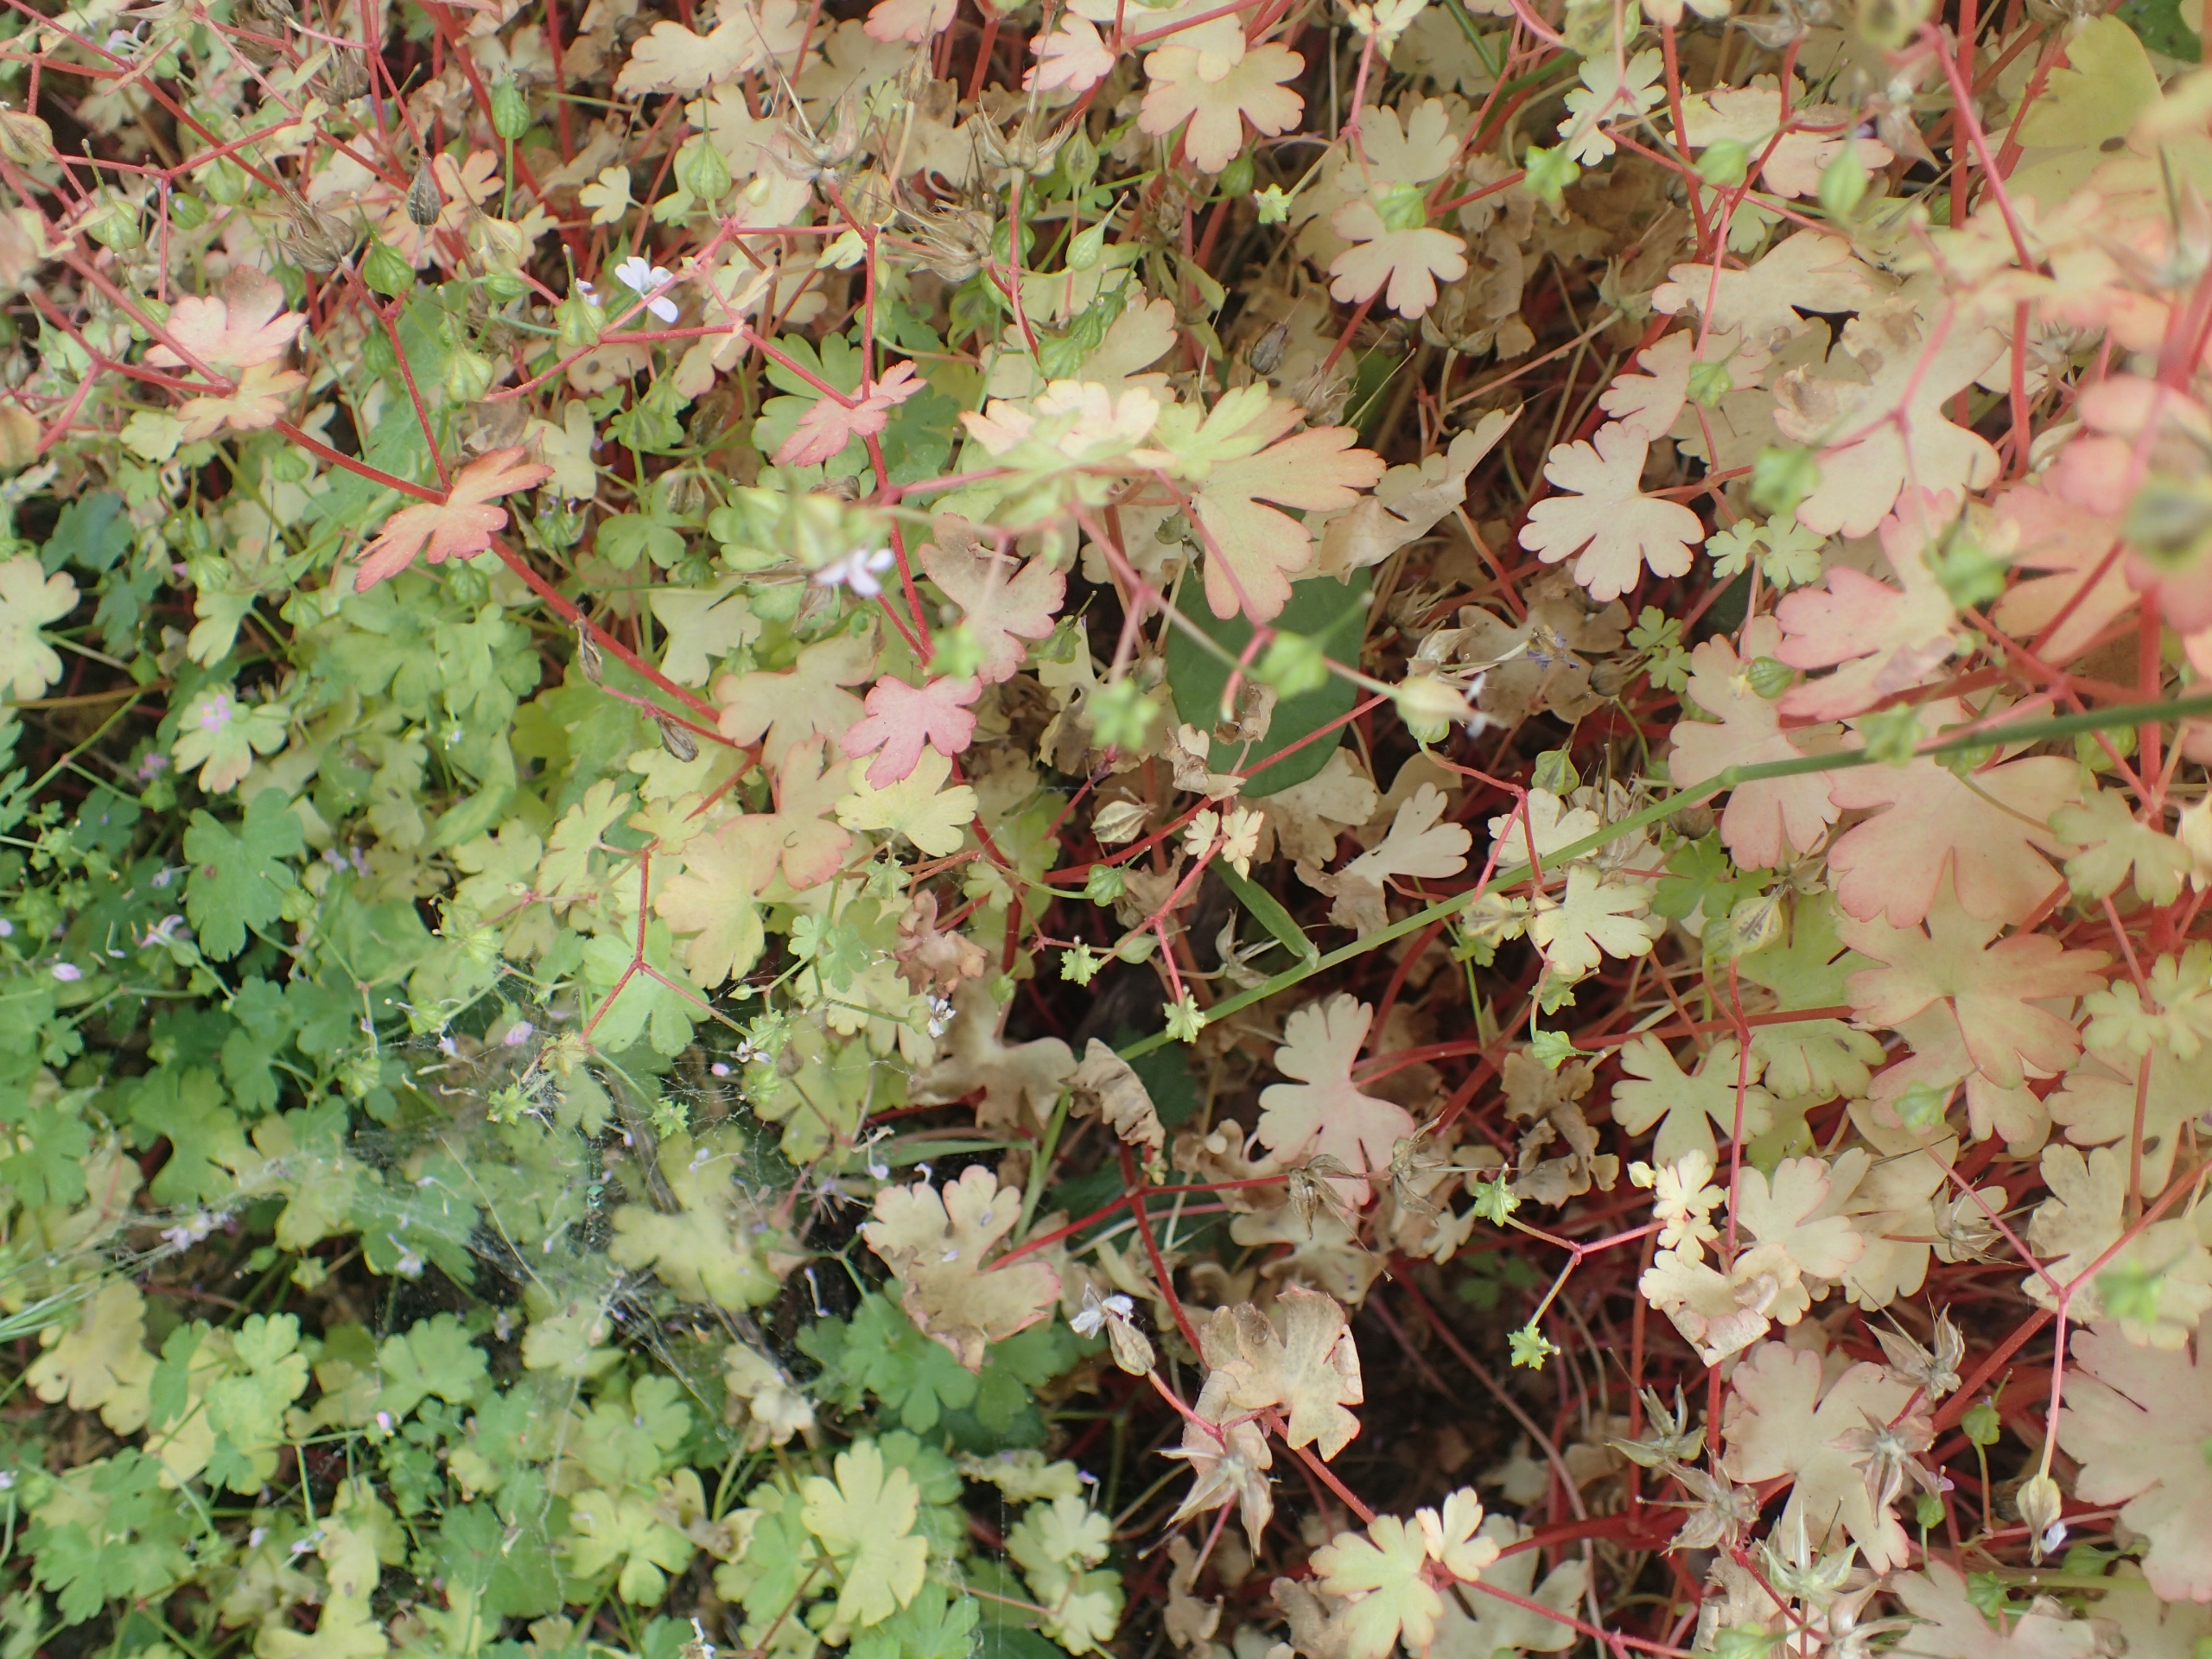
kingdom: Plantae
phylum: Tracheophyta
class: Magnoliopsida
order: Geraniales
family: Geraniaceae
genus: Geranium
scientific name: Geranium lucidum
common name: Skinnende storkenæb
